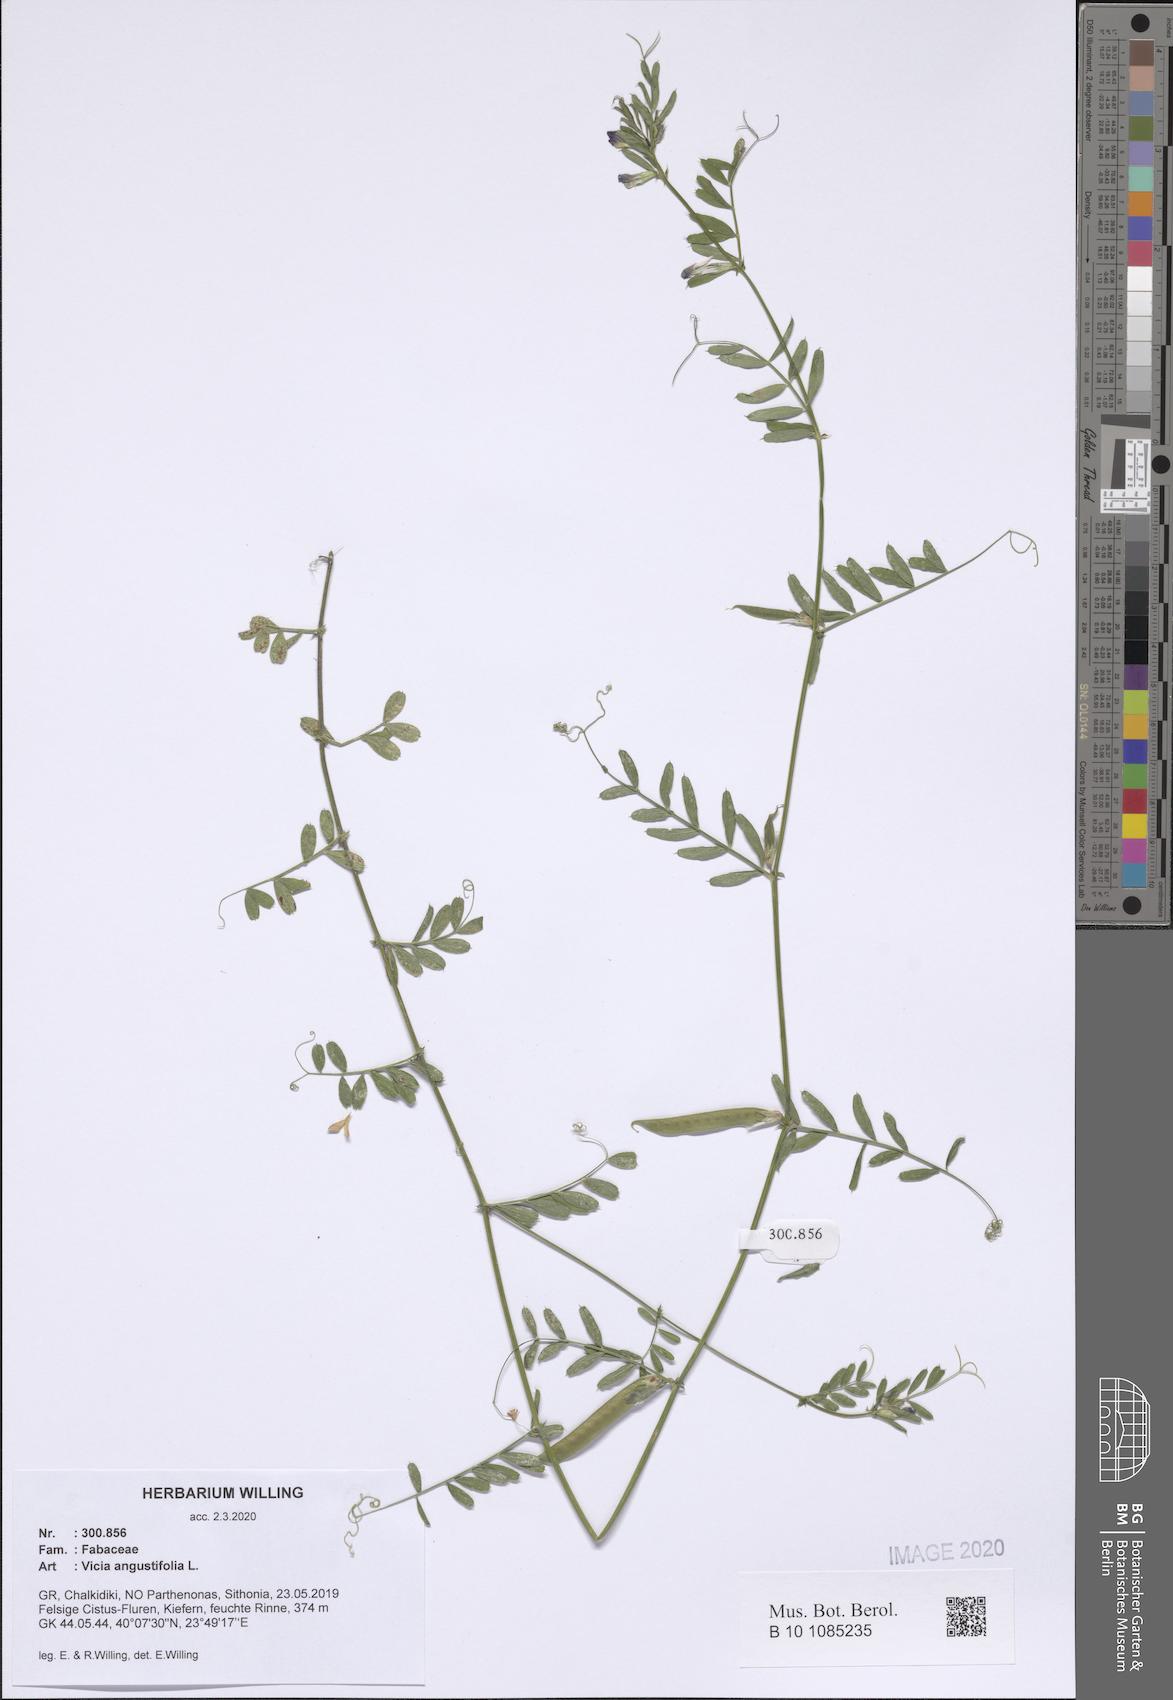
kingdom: Plantae
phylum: Tracheophyta
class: Magnoliopsida
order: Fabales
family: Fabaceae
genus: Vicia
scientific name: Vicia sativa
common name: Garden vetch
